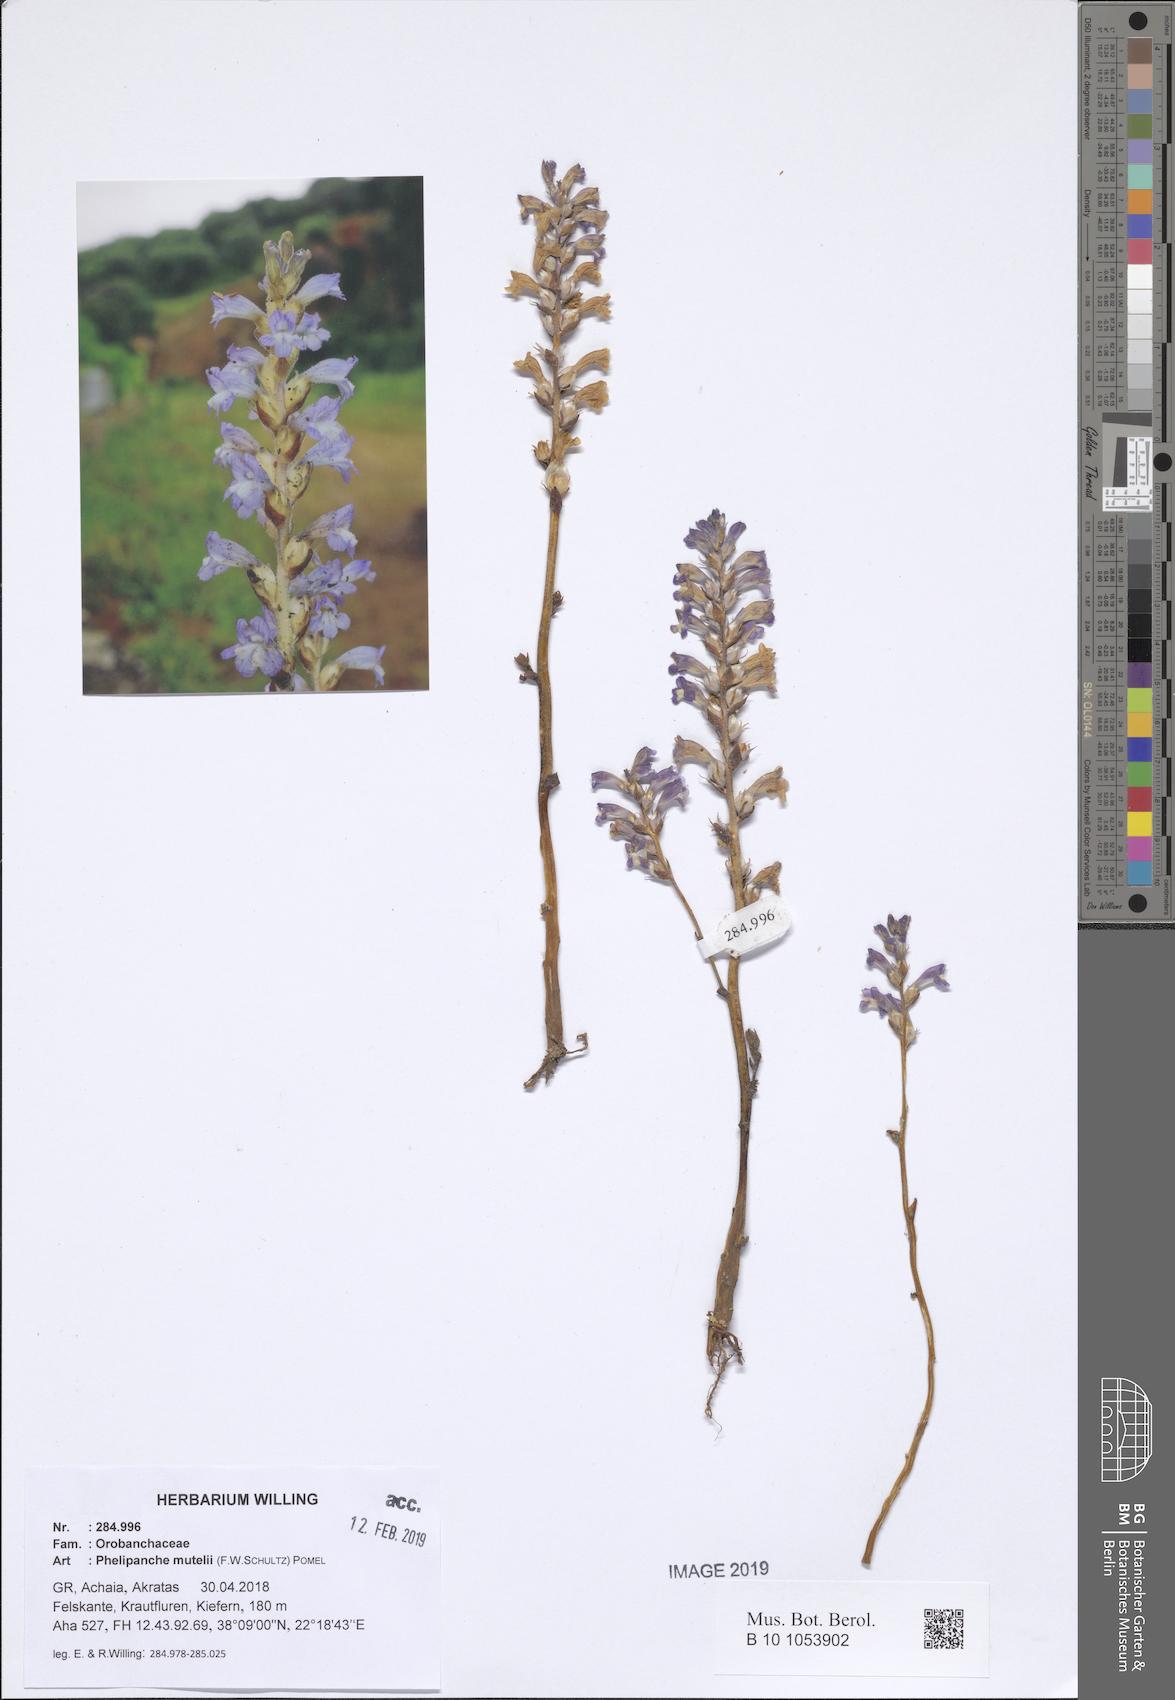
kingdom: Plantae
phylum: Tracheophyta
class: Magnoliopsida
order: Lamiales
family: Orobanchaceae
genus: Phelipanche
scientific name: Phelipanche mutelii
